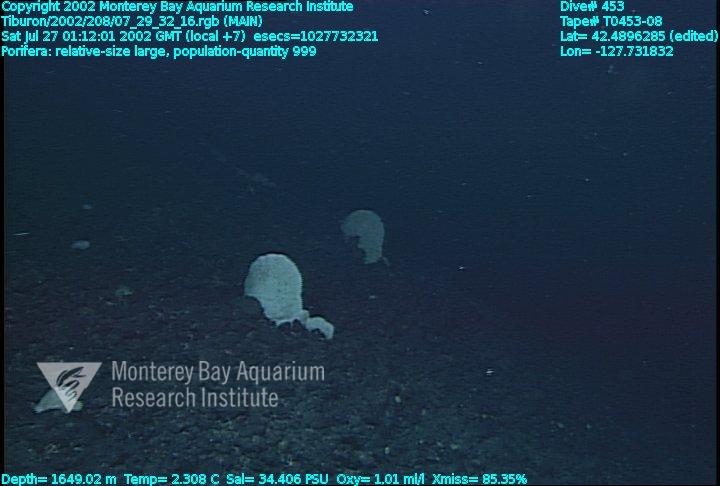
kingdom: Animalia
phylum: Porifera
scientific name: Porifera
